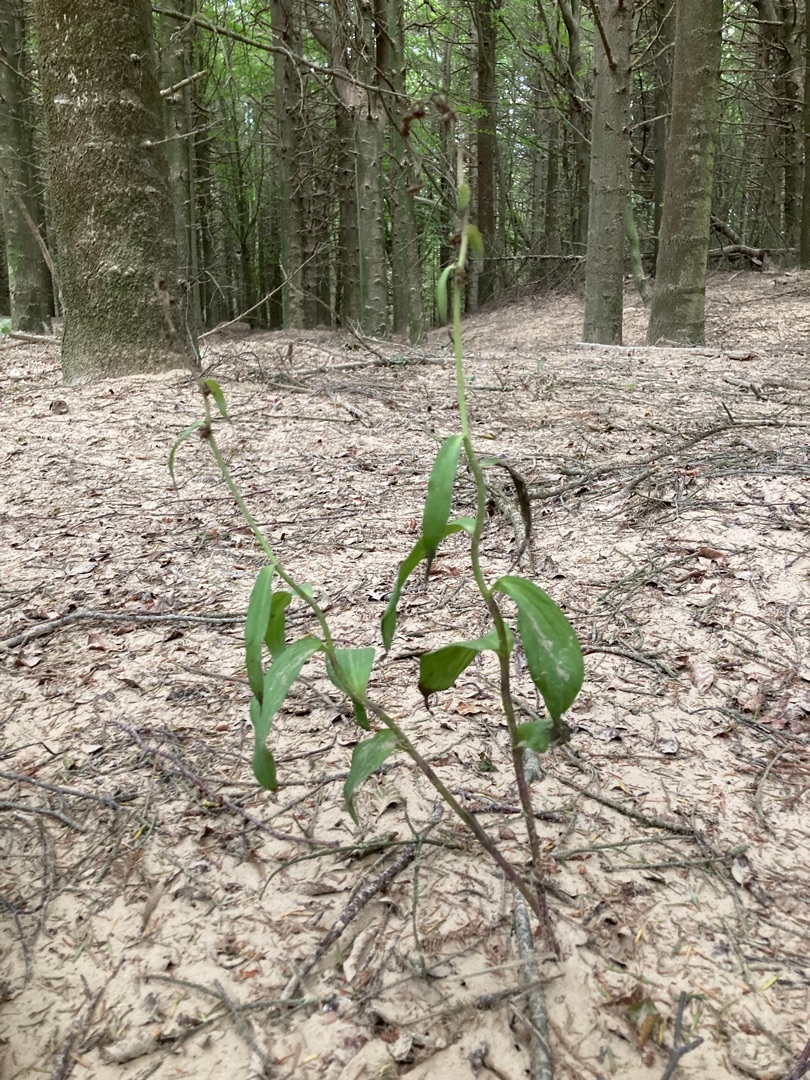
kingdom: Plantae
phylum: Tracheophyta
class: Liliopsida
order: Asparagales
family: Orchidaceae
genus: Epipactis
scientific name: Epipactis atrorubens
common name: Rød hullæbe
